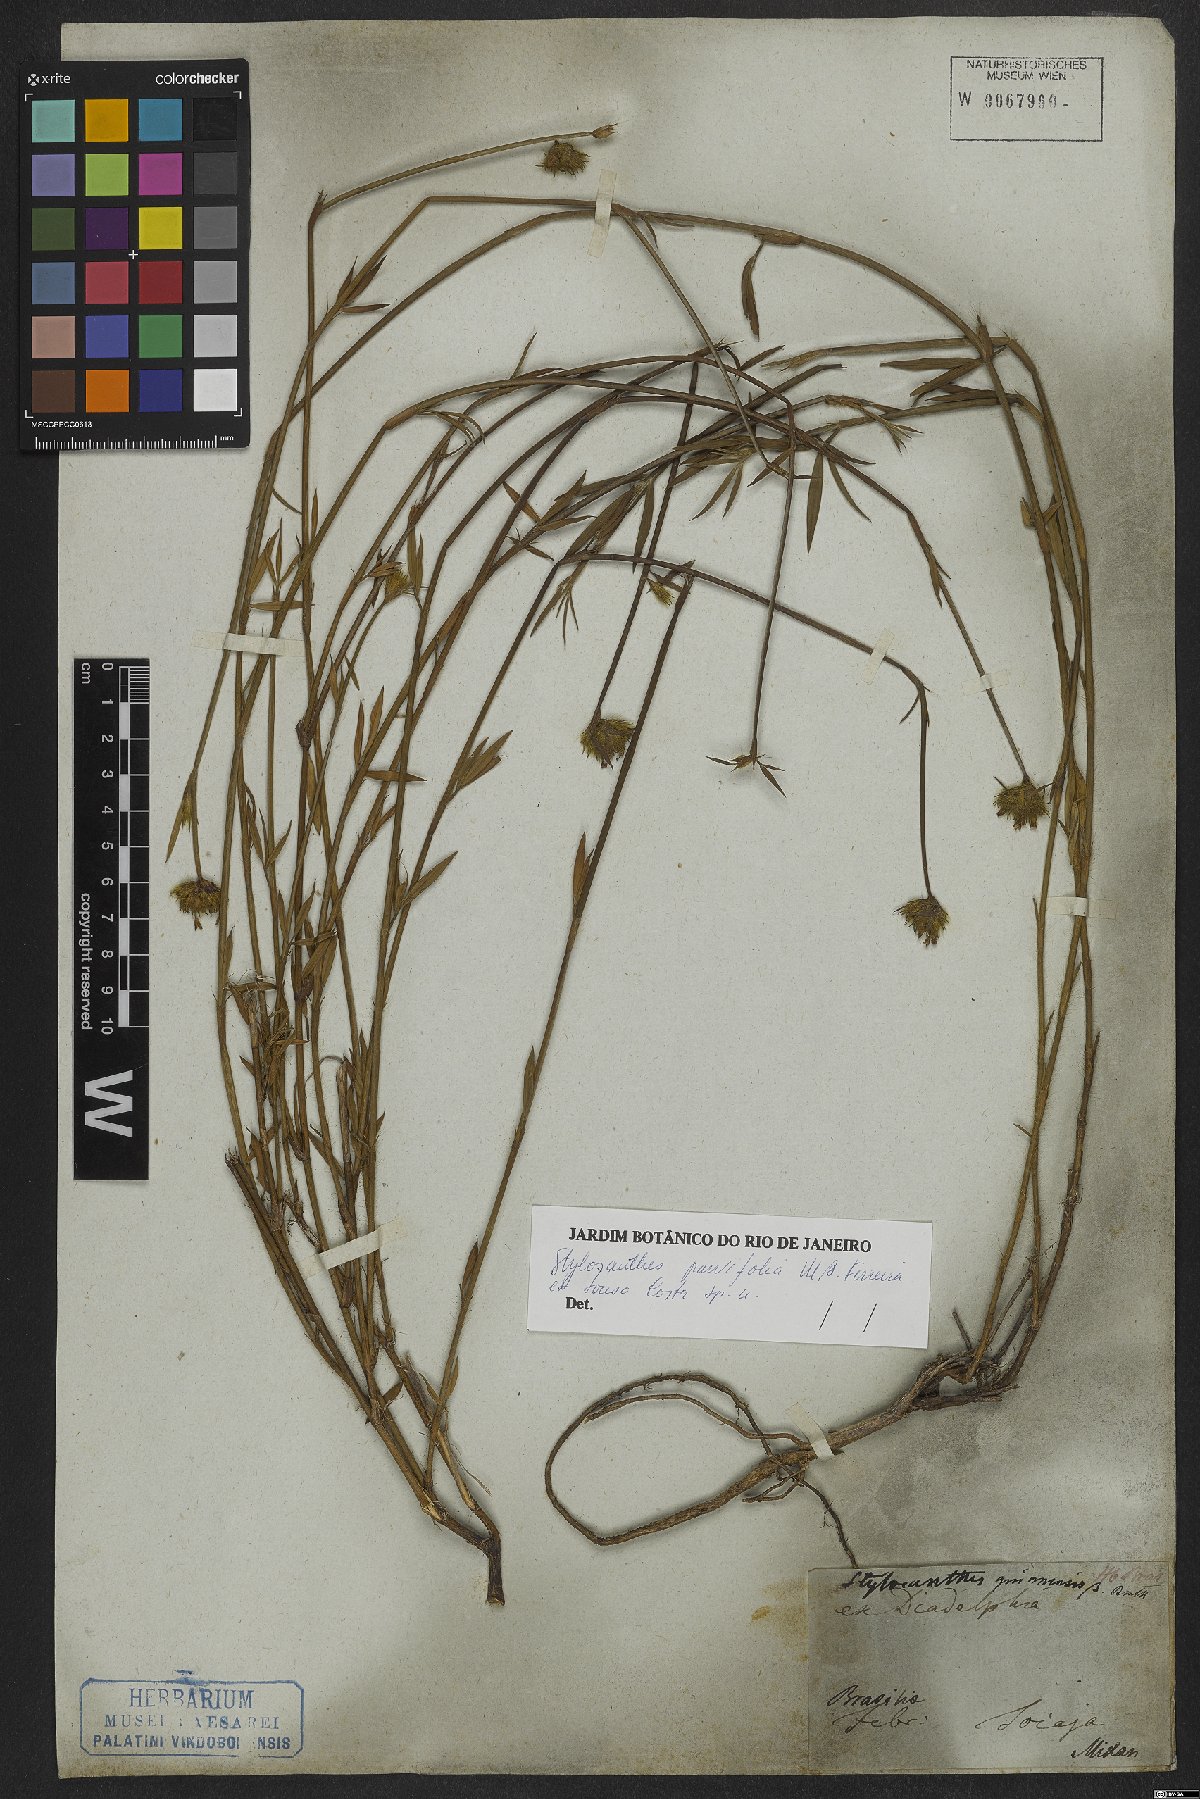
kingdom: Plantae
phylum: Tracheophyta
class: Magnoliopsida
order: Fabales
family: Fabaceae
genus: Stylosanthes
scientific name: Stylosanthes
